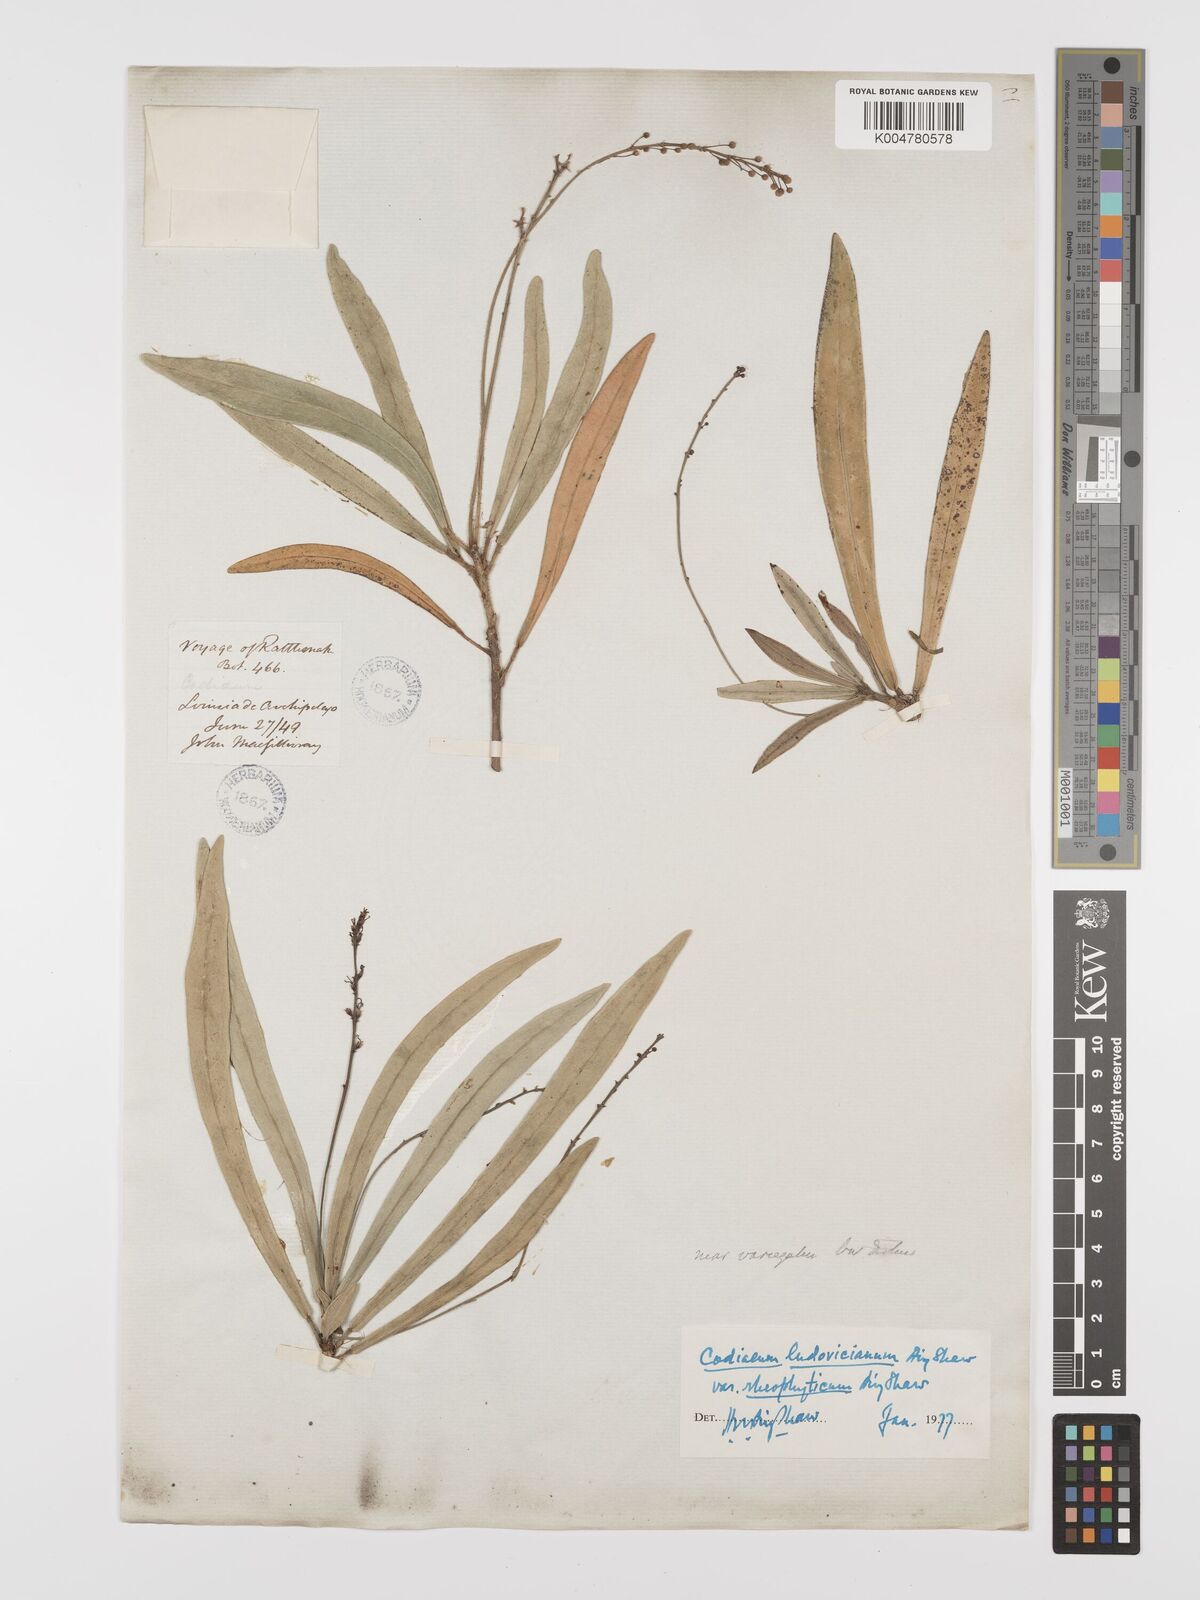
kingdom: Plantae
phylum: Tracheophyta
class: Magnoliopsida
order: Malpighiales
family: Euphorbiaceae
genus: Codiaeum
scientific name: Codiaeum ludovicianum
